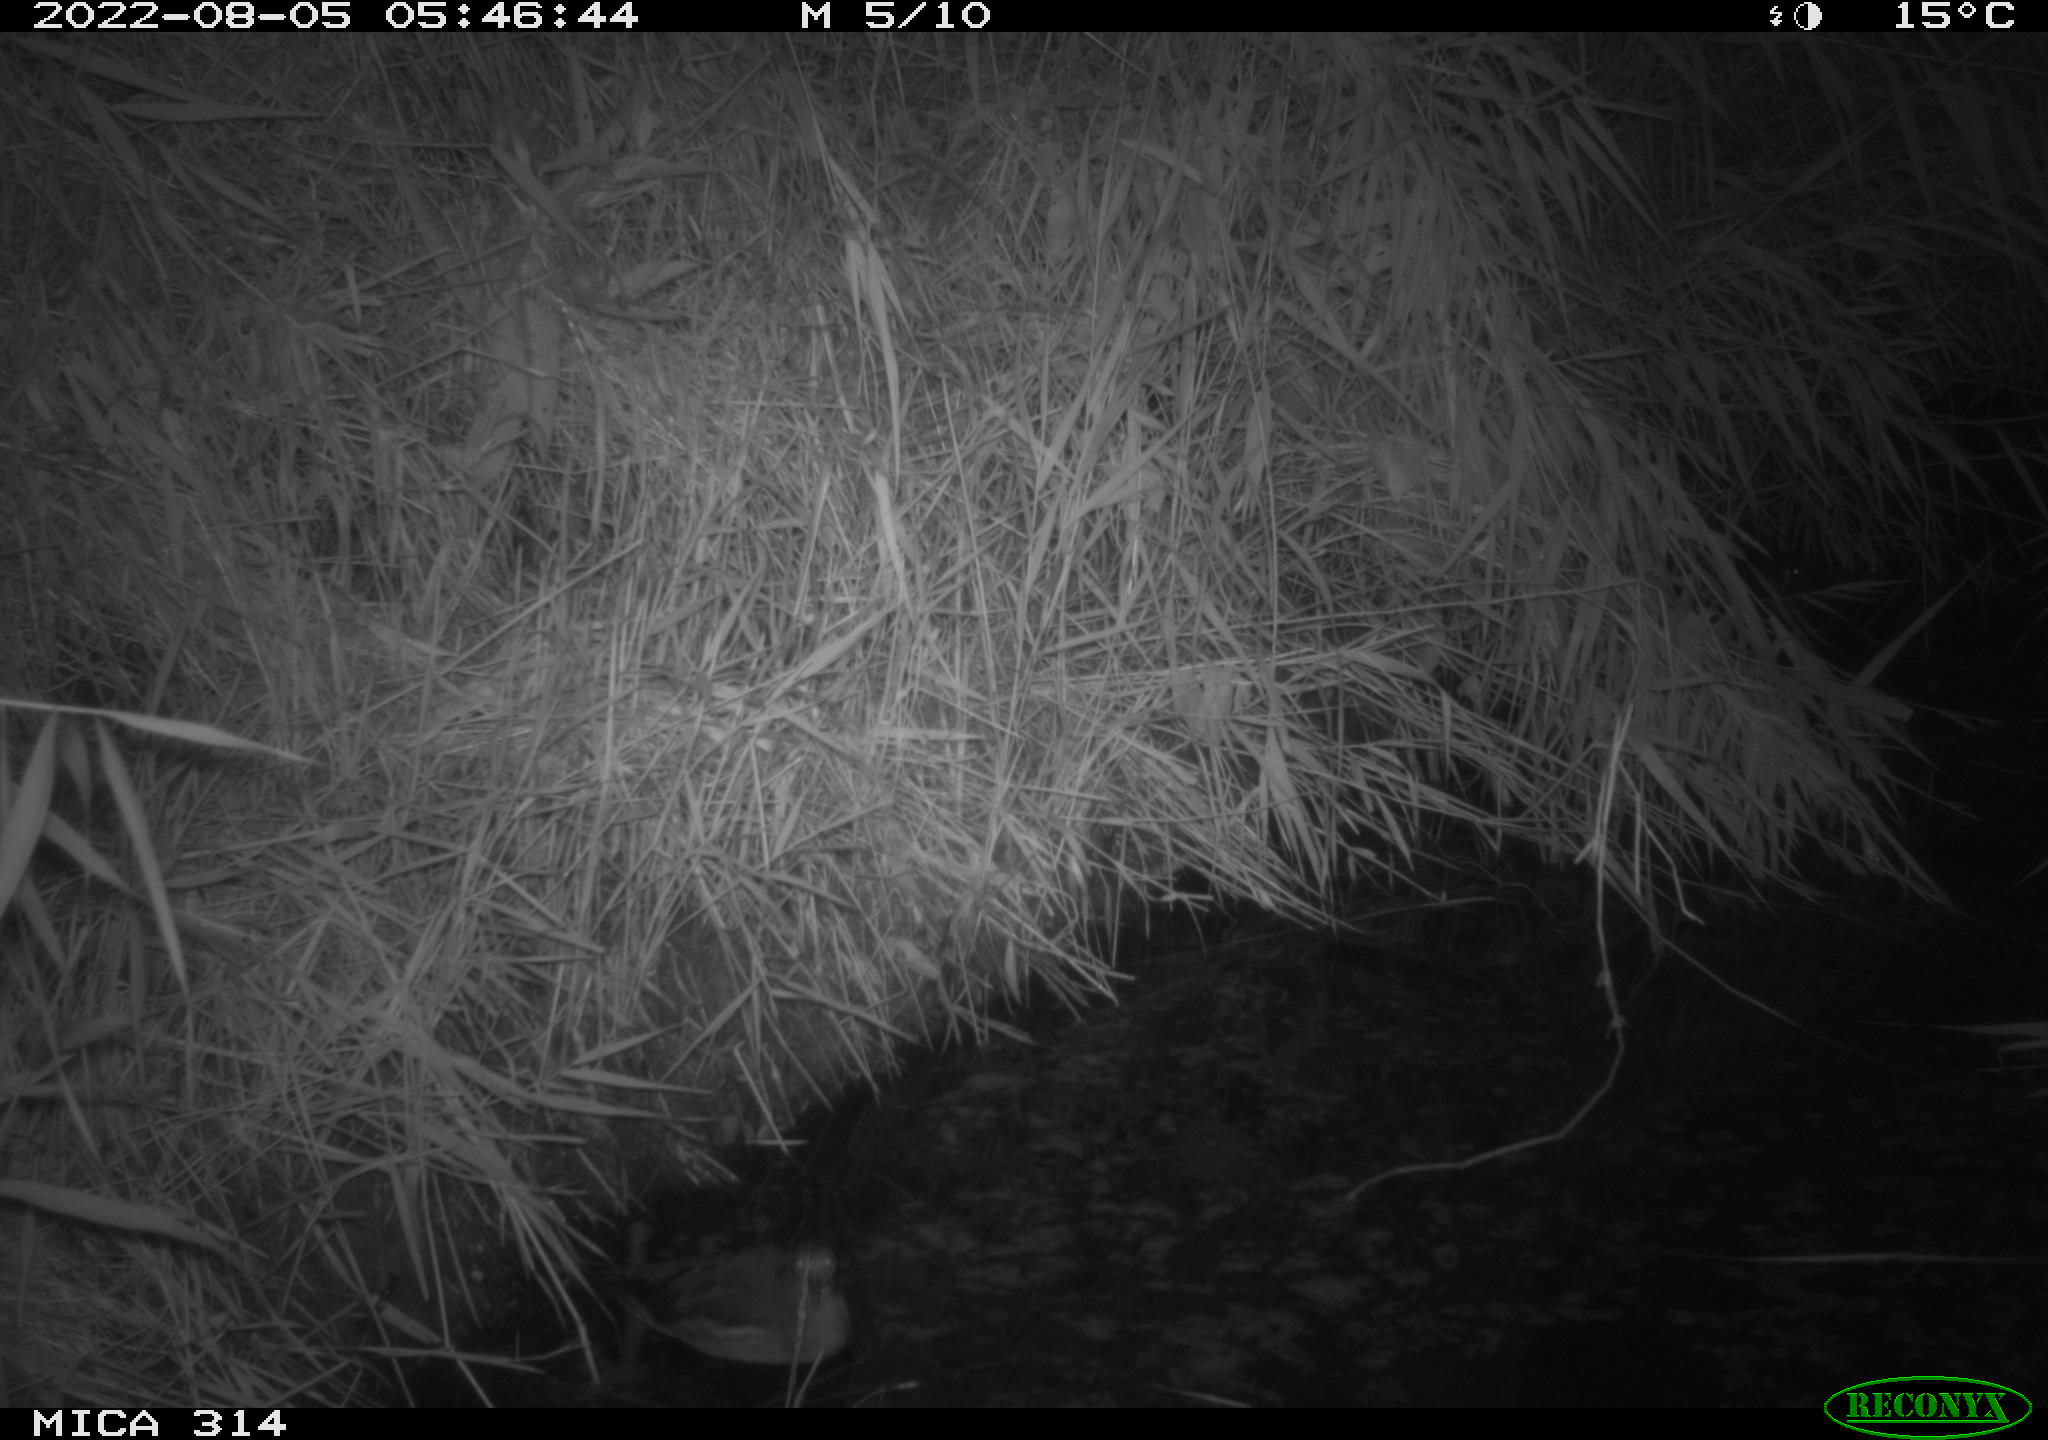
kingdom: Animalia
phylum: Chordata
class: Aves
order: Gruiformes
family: Rallidae
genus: Gallinula
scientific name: Gallinula chloropus
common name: Common moorhen
